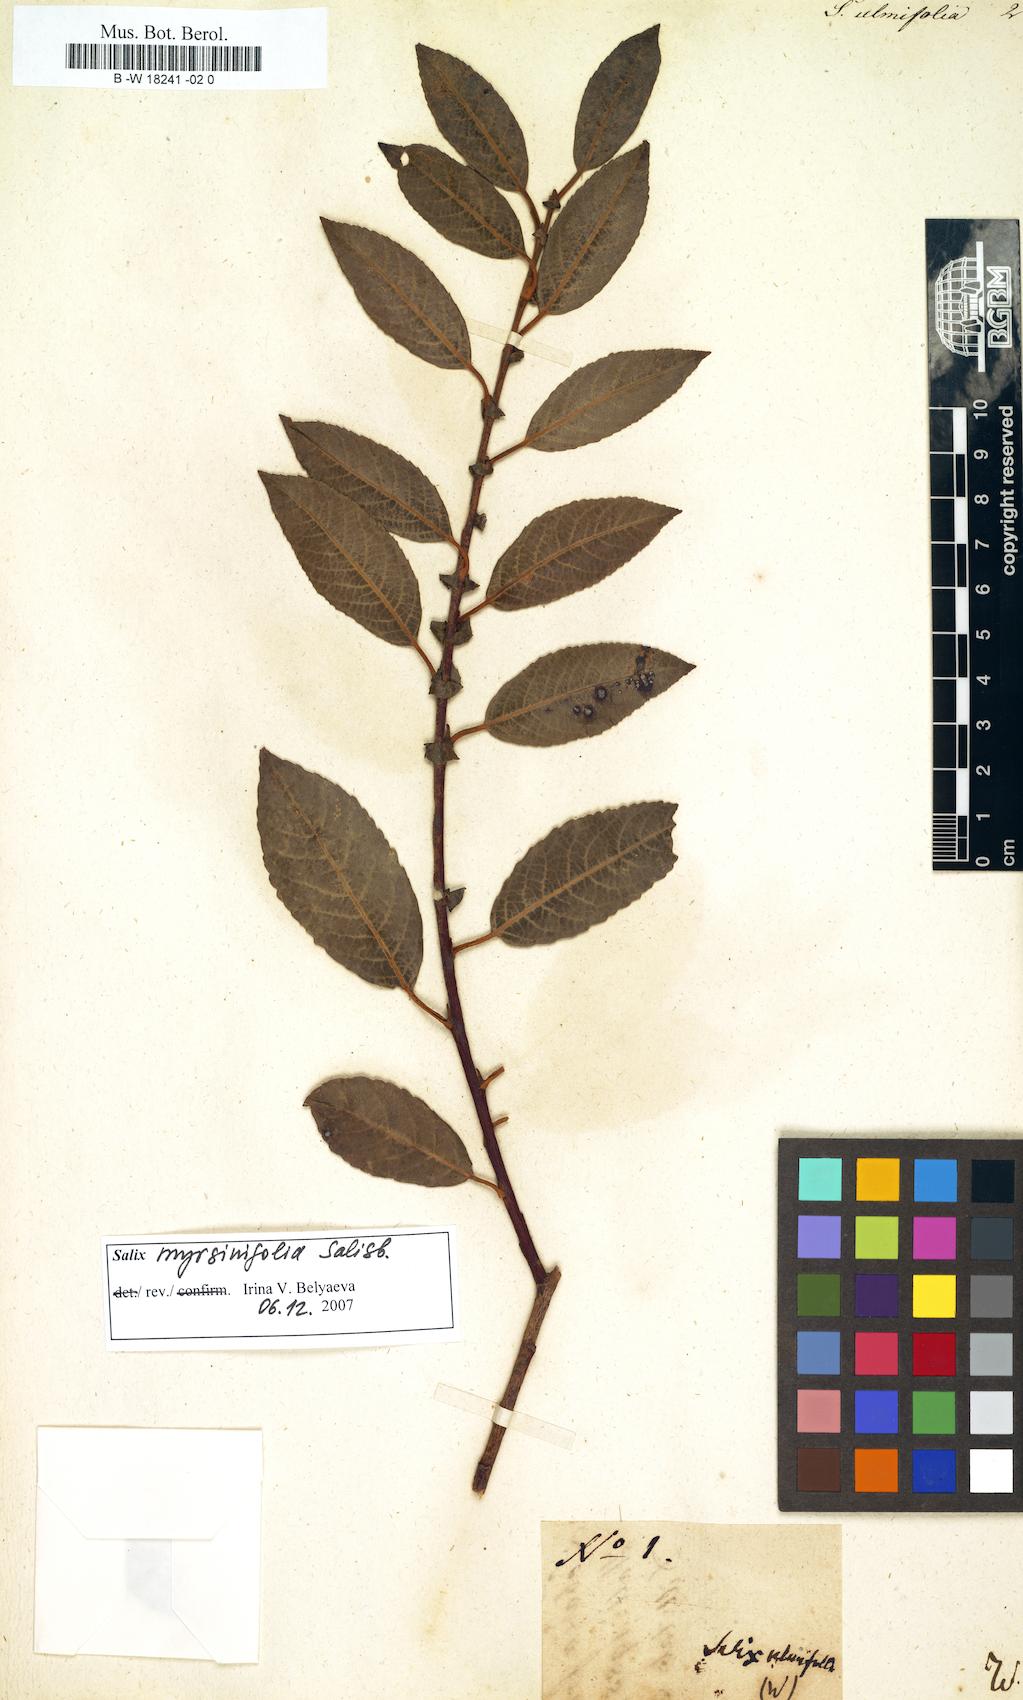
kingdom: Plantae
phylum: Tracheophyta
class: Magnoliopsida
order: Malpighiales
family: Salicaceae
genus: Salix
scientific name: Salix ulmifolia
